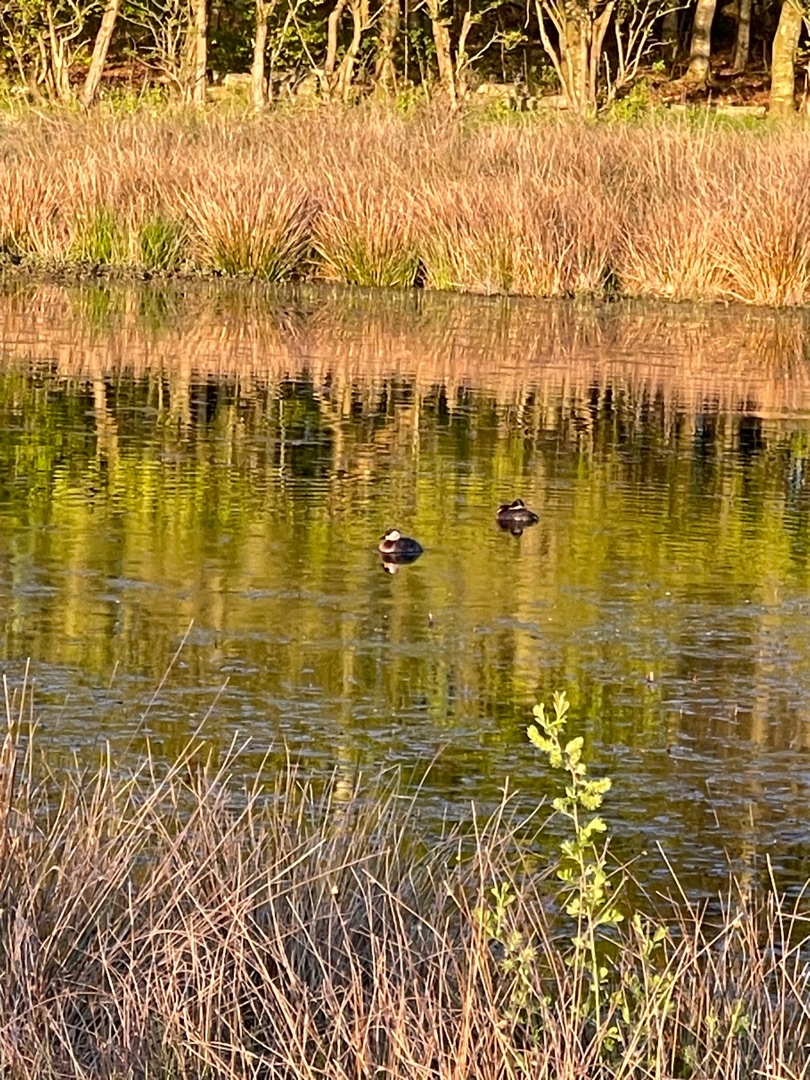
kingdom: Animalia
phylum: Chordata
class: Aves
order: Podicipediformes
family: Podicipedidae
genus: Podiceps
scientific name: Podiceps grisegena
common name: Gråstrubet lappedykker
